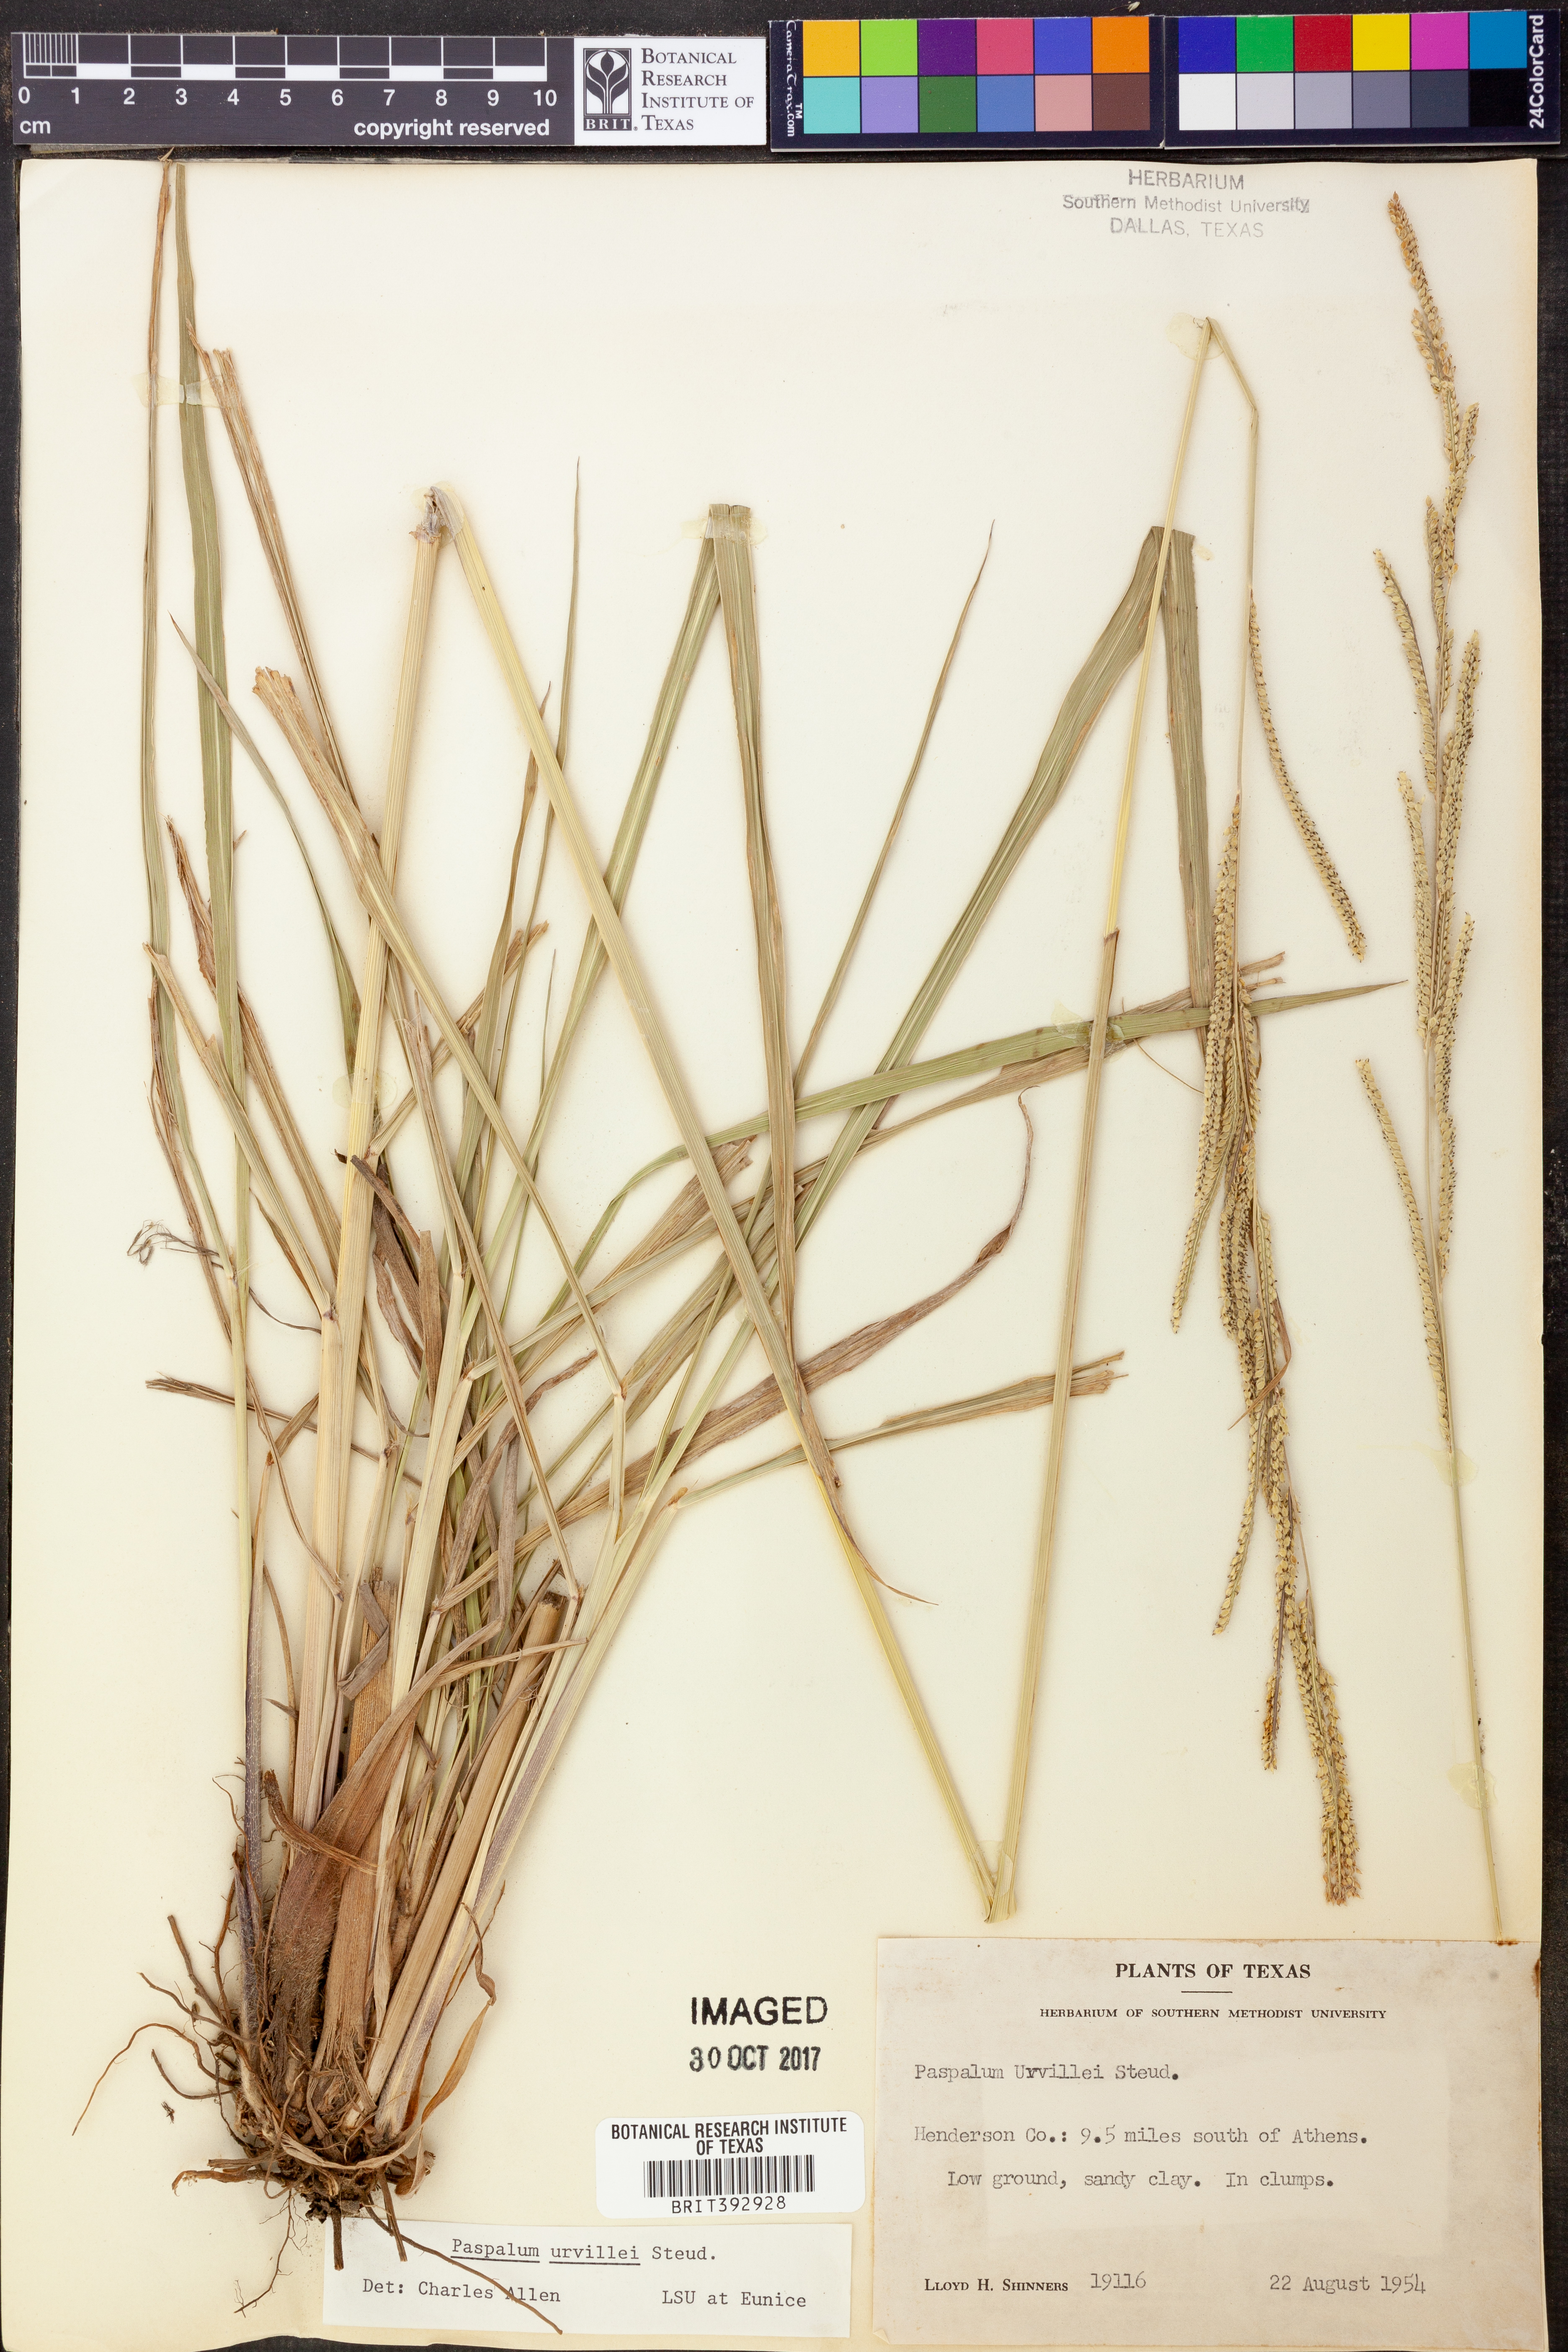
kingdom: Plantae
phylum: Tracheophyta
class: Liliopsida
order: Poales
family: Poaceae
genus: Paspalum
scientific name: Paspalum urvillei
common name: Vasey's grass
